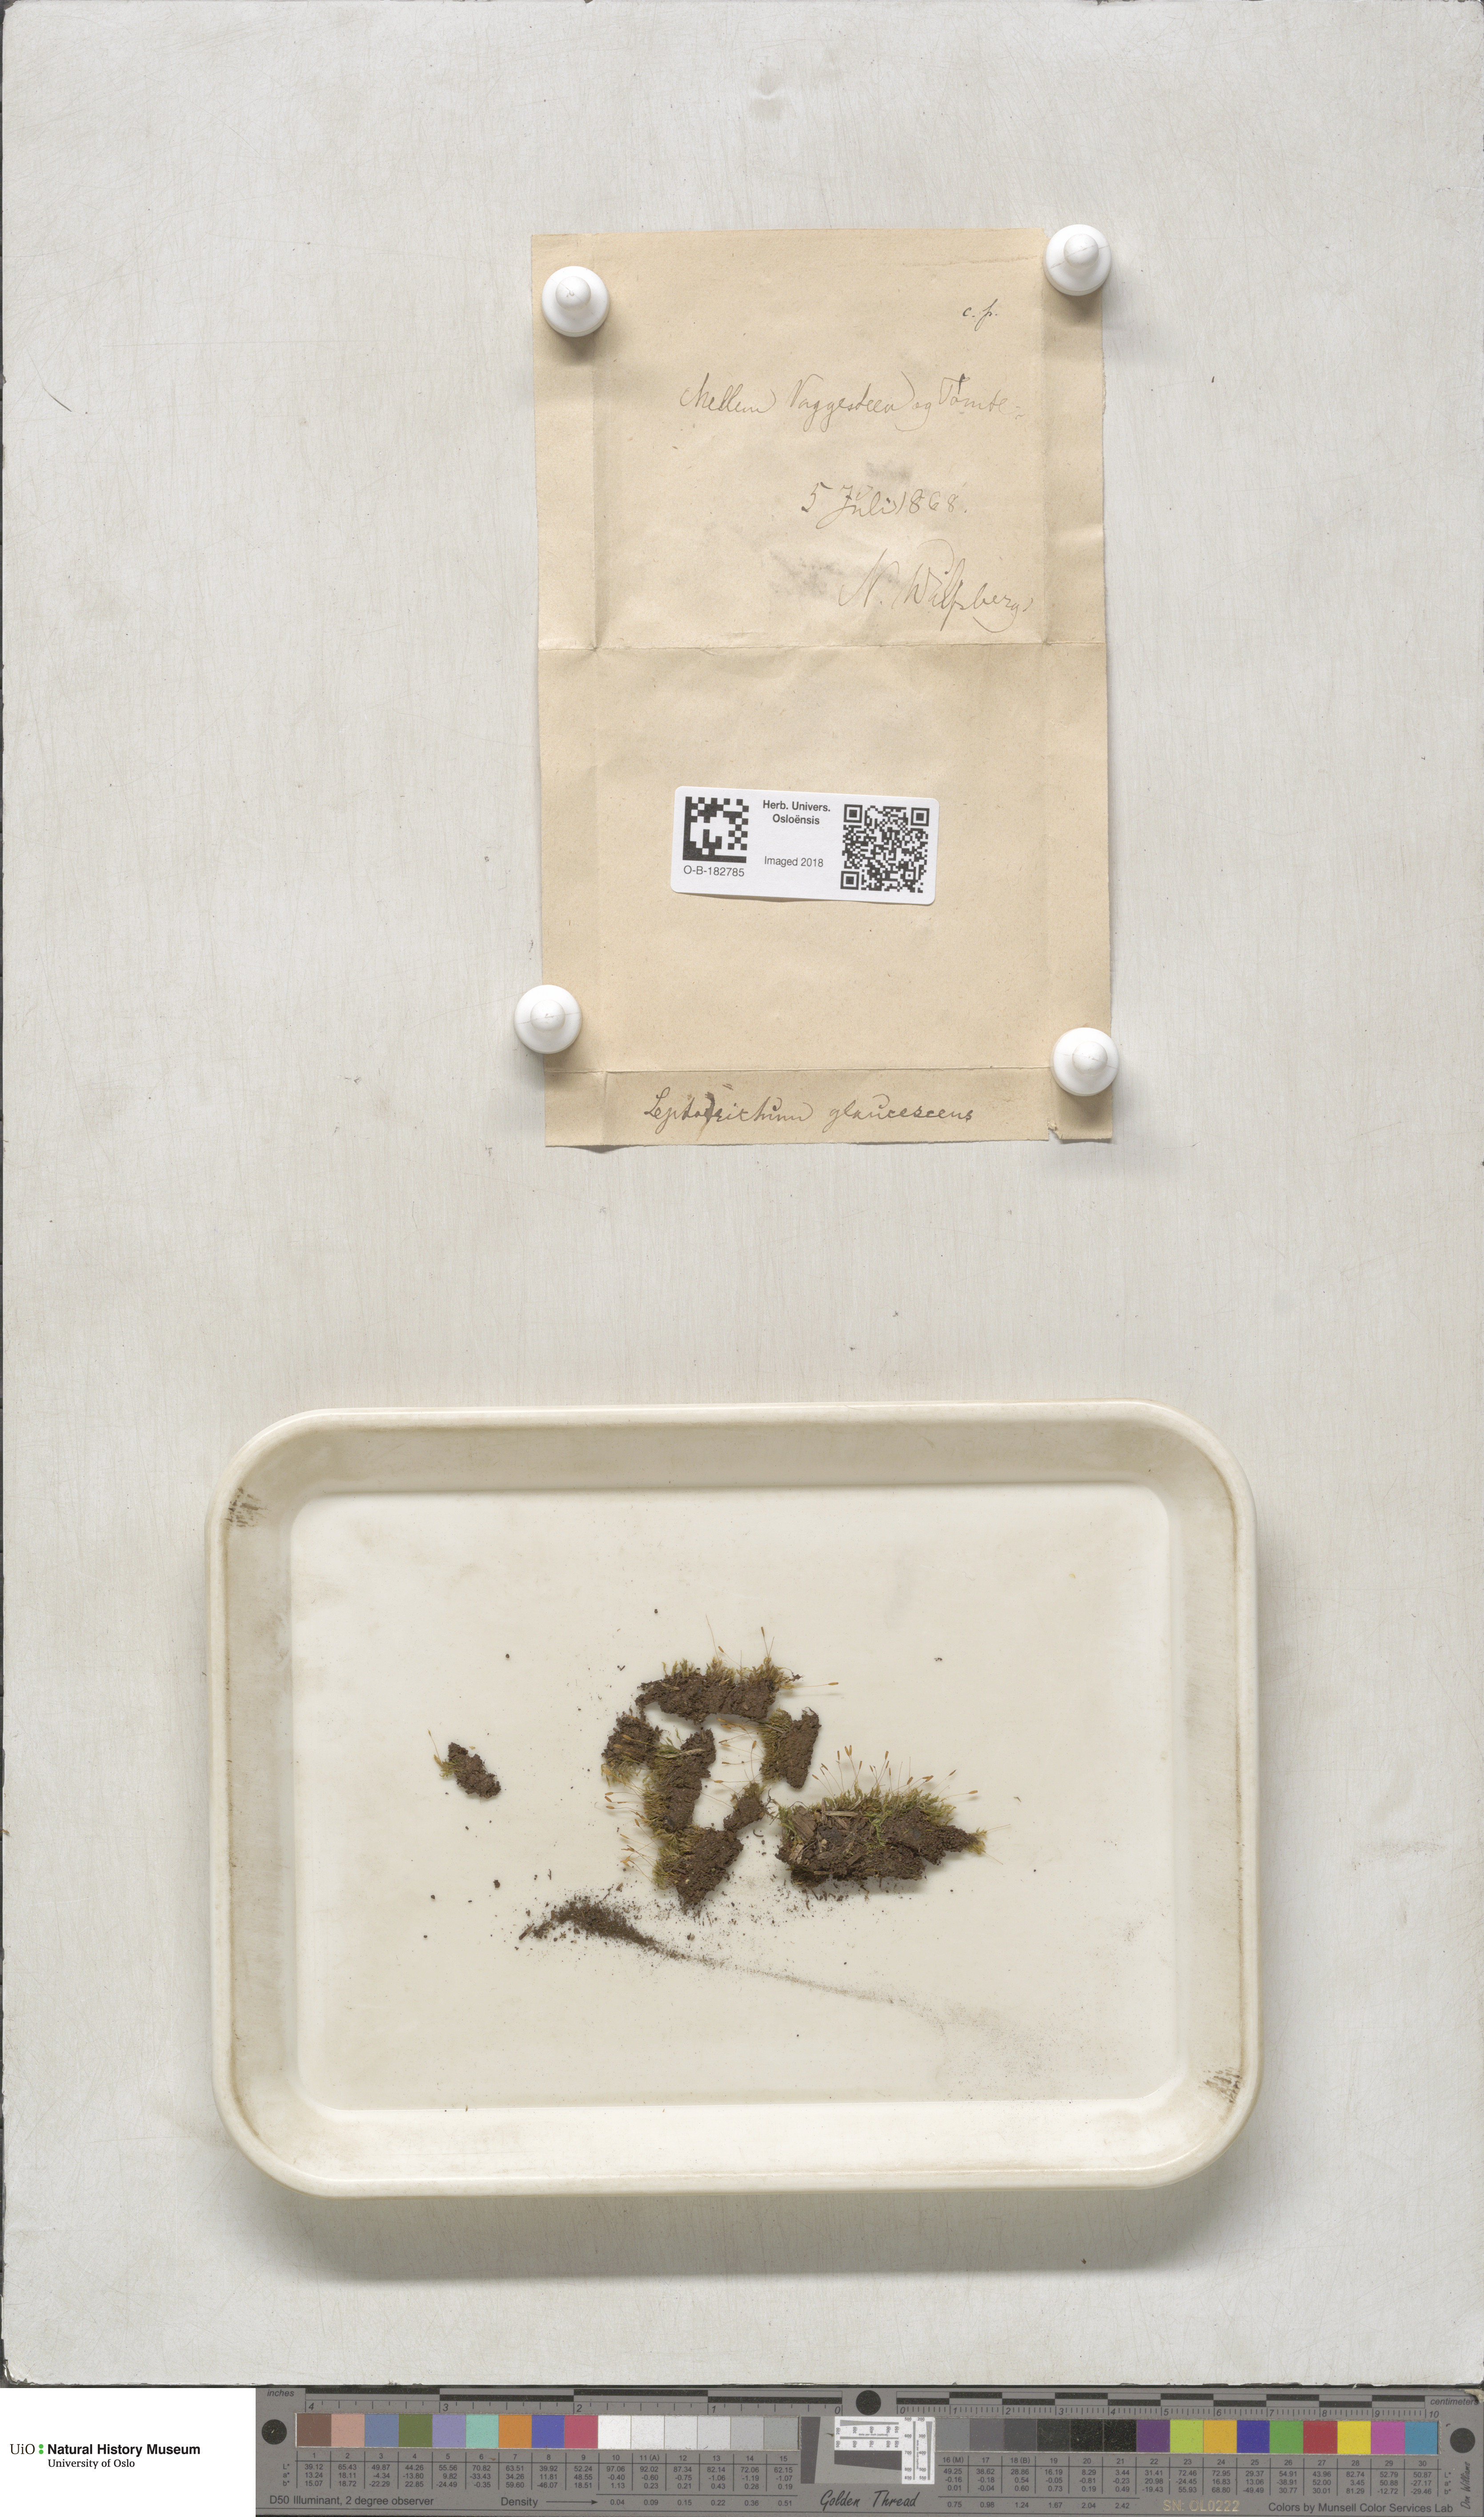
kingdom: Plantae
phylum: Bryophyta
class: Bryopsida
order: Grimmiales
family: Saelaniaceae
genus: Saelania
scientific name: Saelania glaucescens
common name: Blue dew-moss
